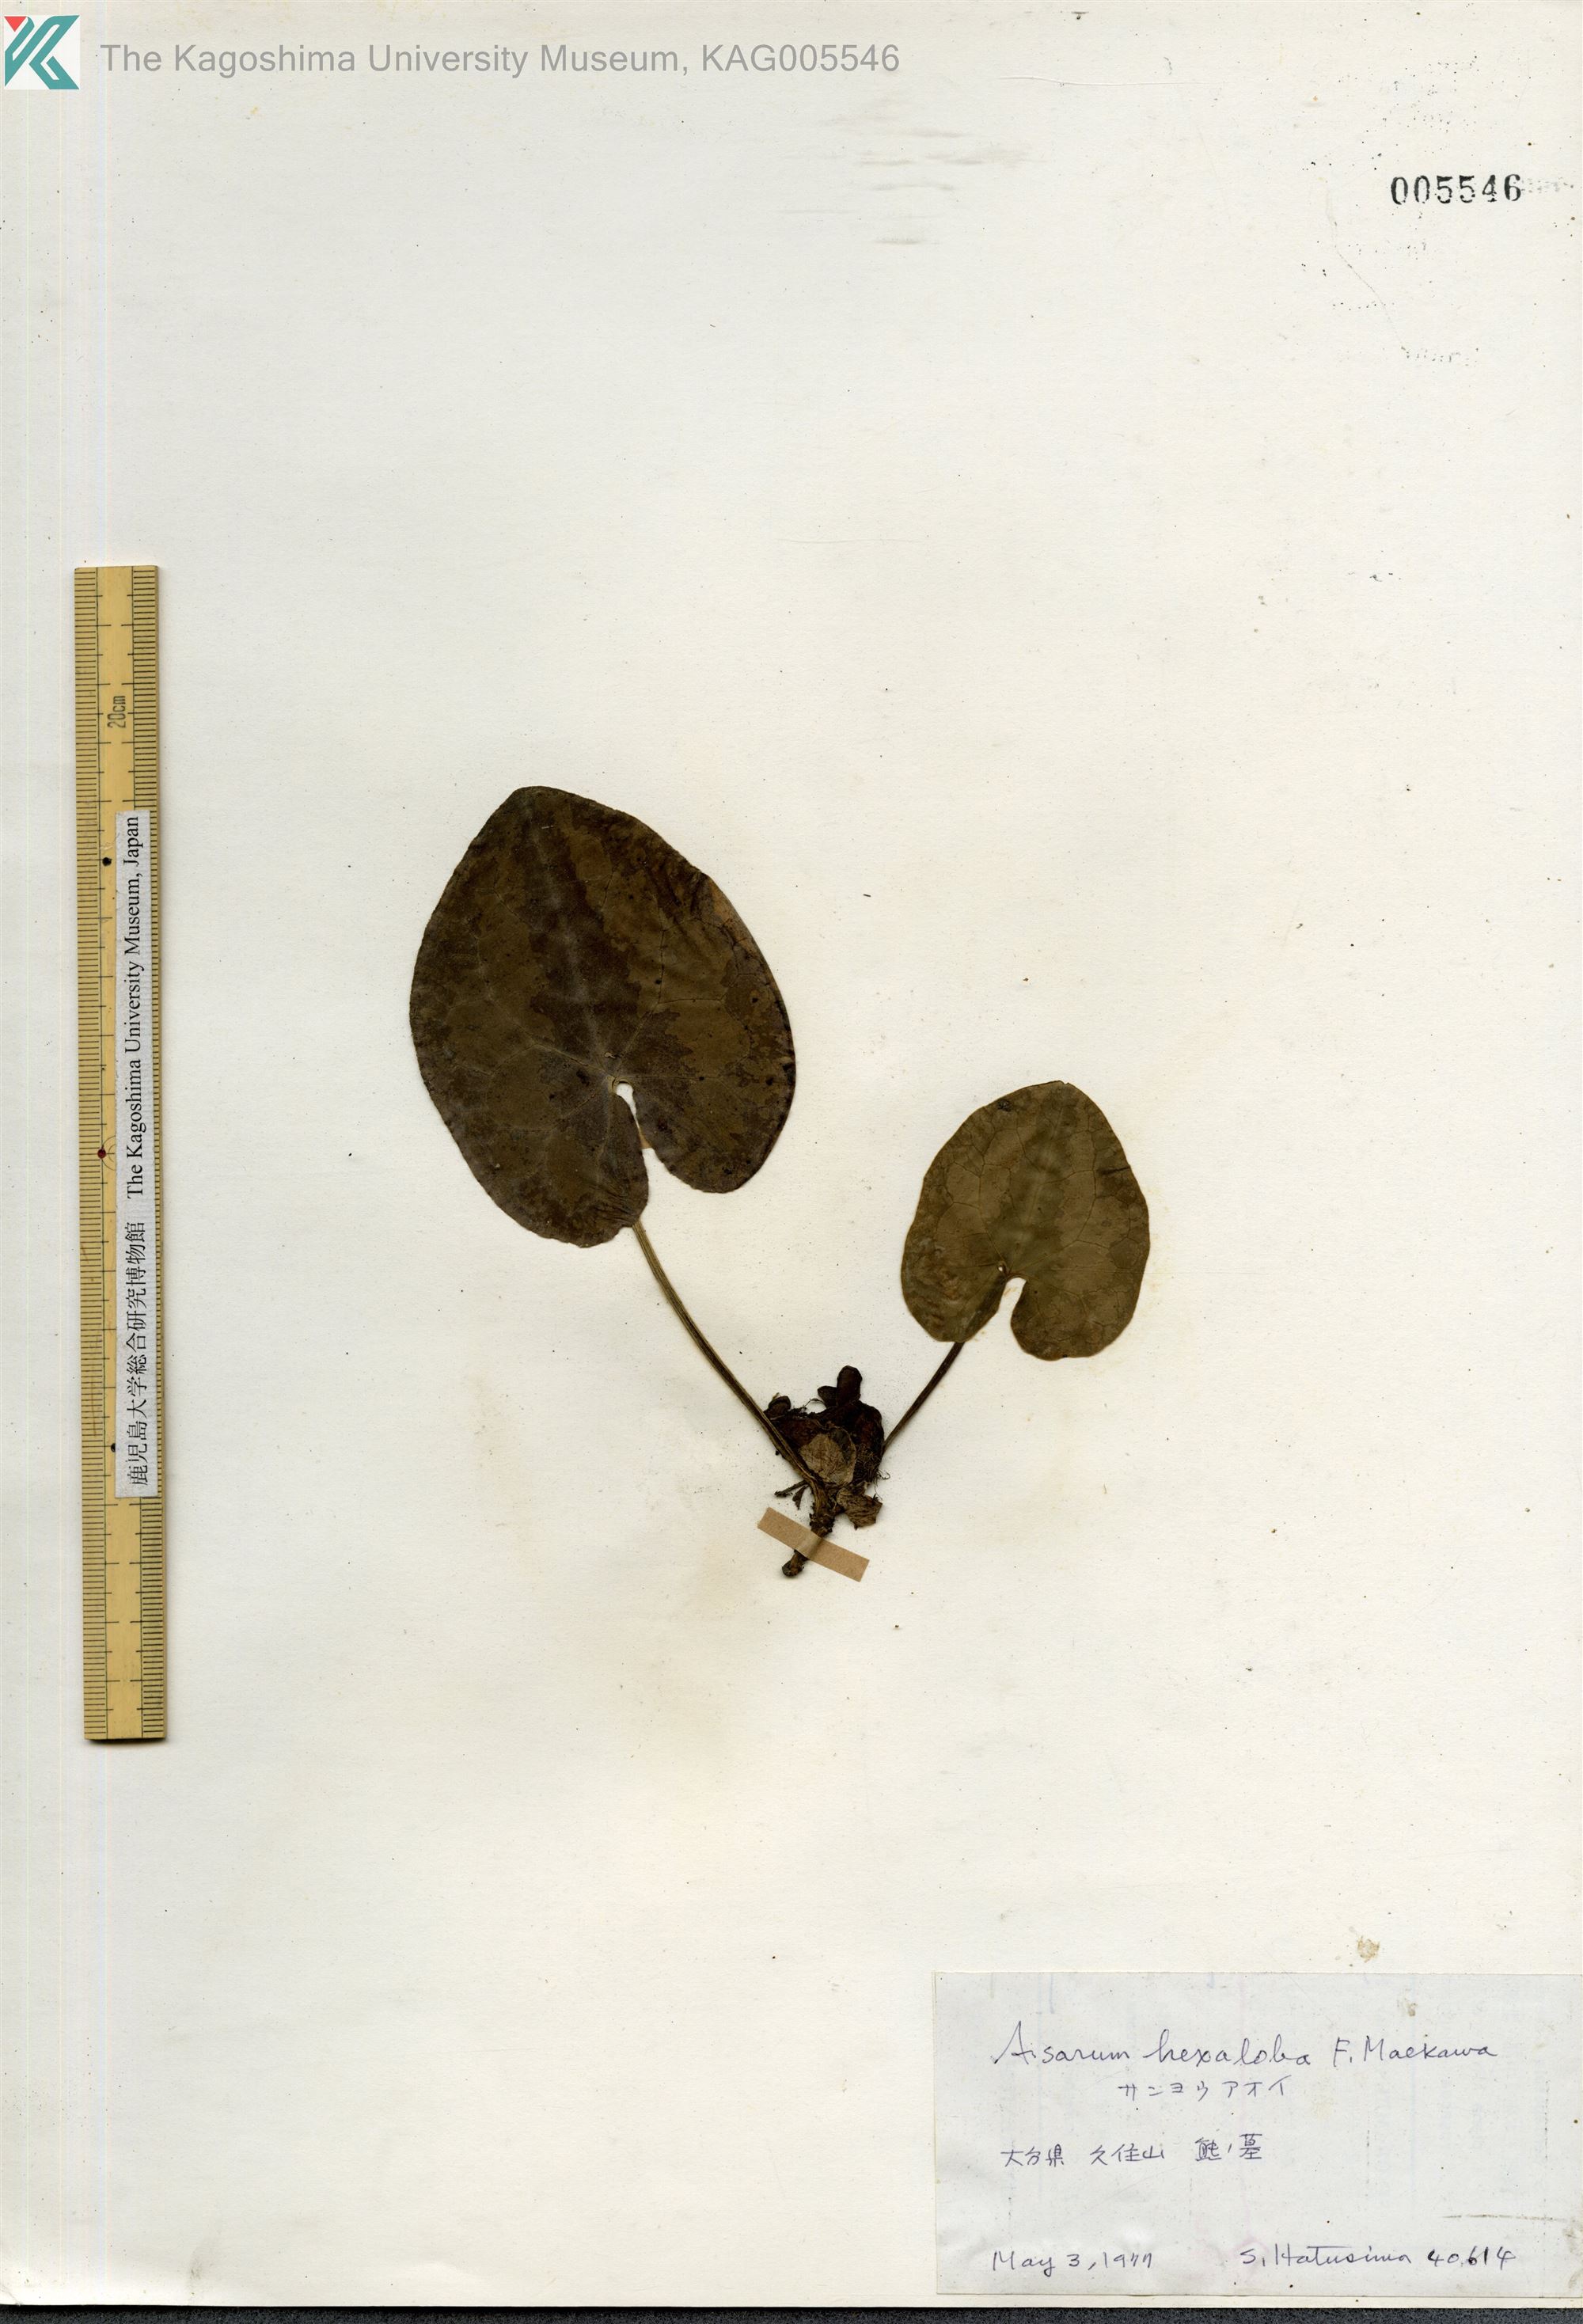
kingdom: Plantae
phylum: Tracheophyta
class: Magnoliopsida
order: Piperales
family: Aristolochiaceae
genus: Asarum
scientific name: Asarum hexalobum
